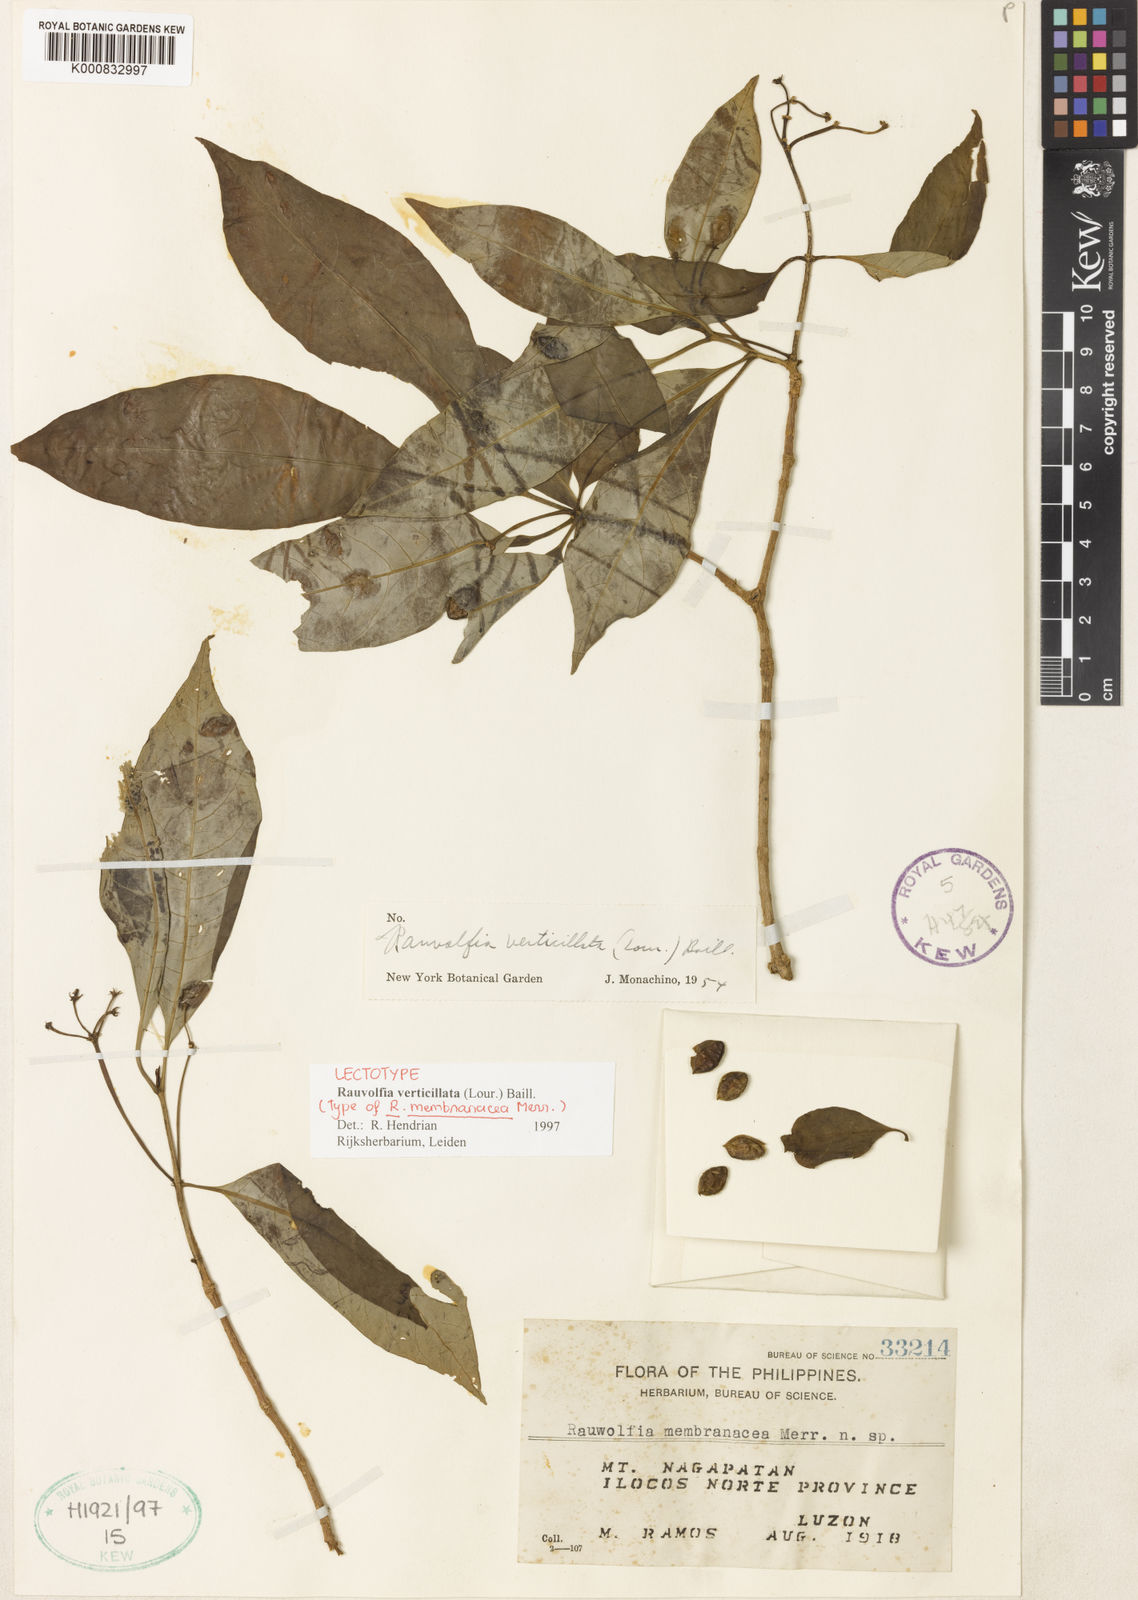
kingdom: Plantae
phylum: Tracheophyta
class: Magnoliopsida
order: Gentianales
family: Apocynaceae
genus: Rauvolfia
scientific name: Rauvolfia verticillata
